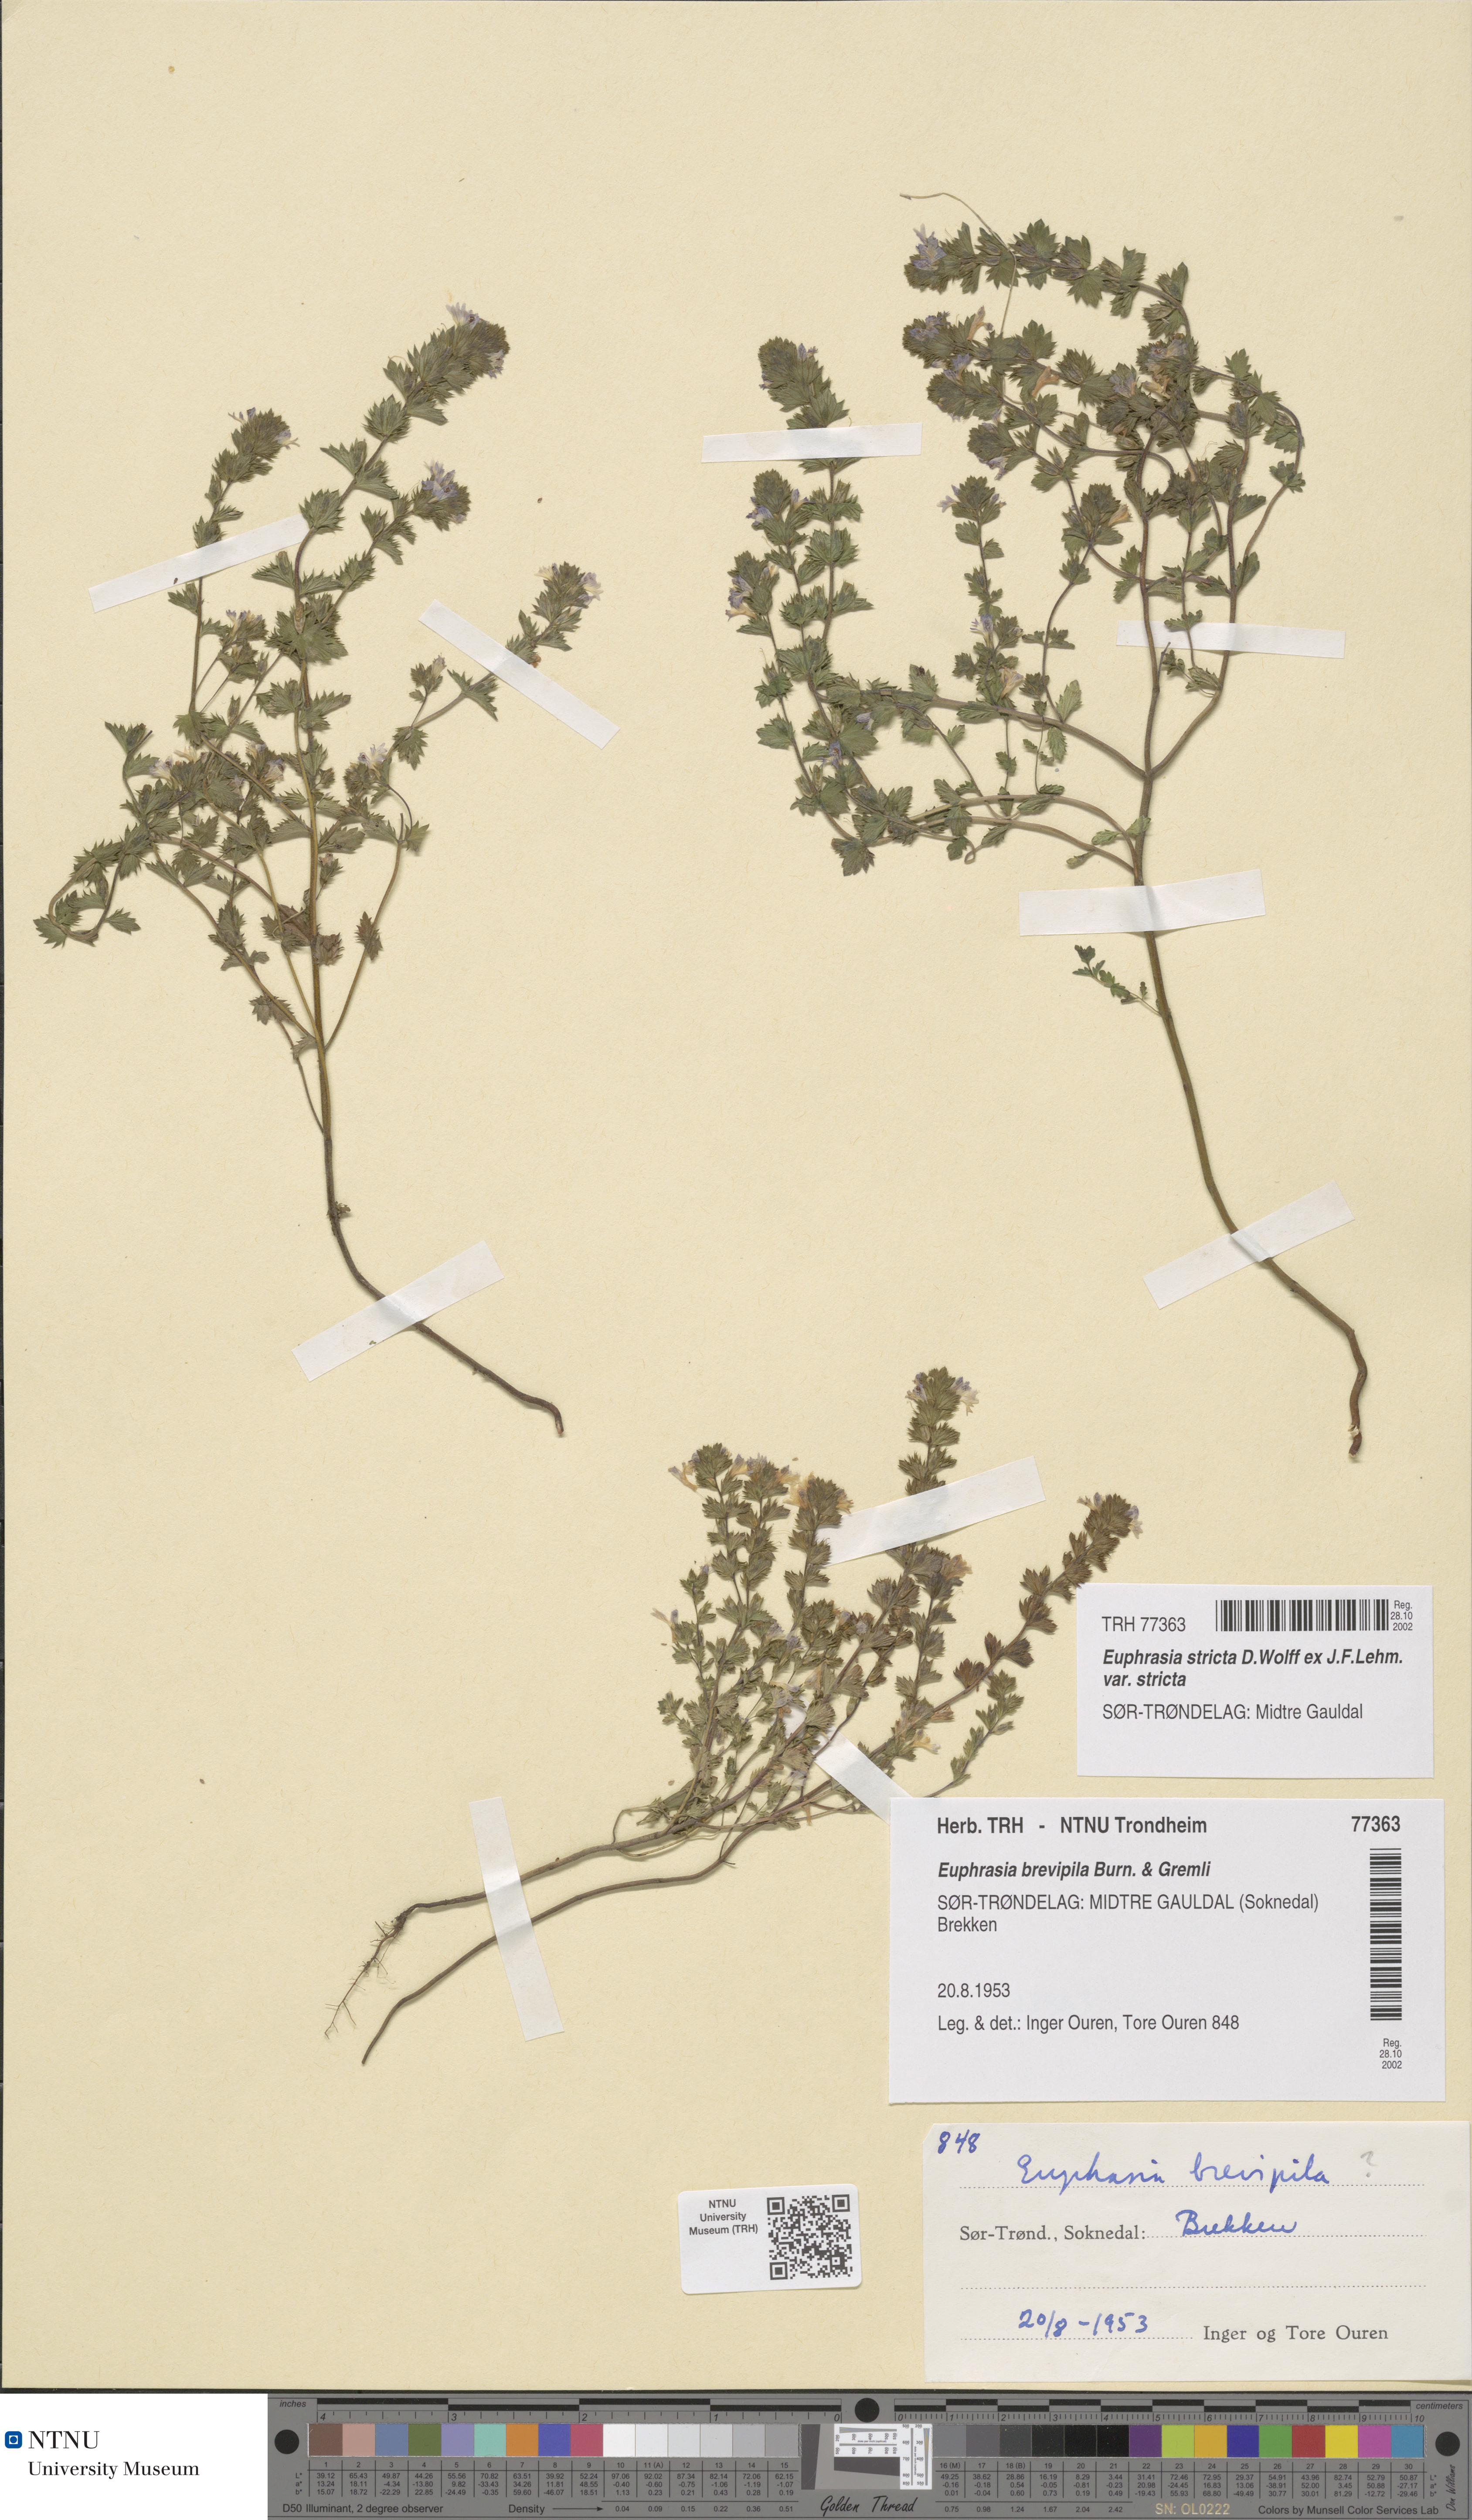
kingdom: Plantae
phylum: Tracheophyta
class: Magnoliopsida
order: Lamiales
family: Orobanchaceae
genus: Euphrasia
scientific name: Euphrasia vernalis
